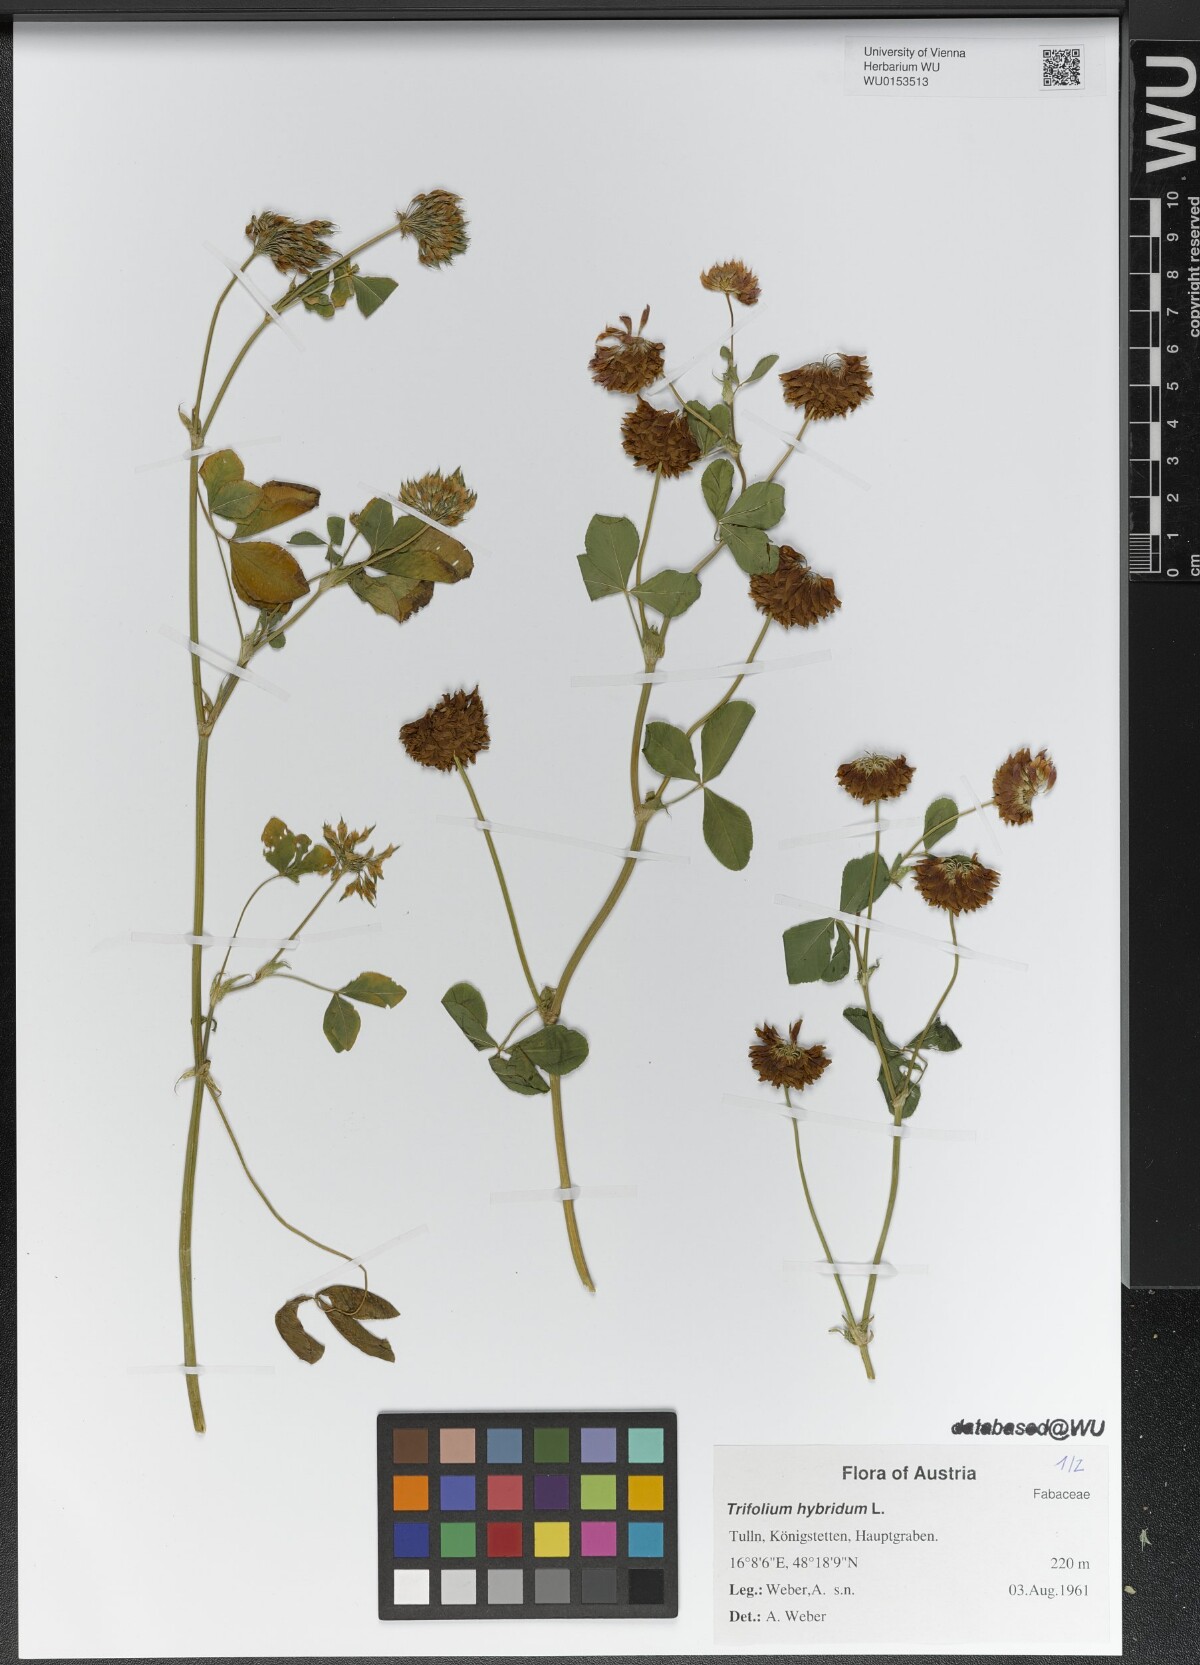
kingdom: Plantae
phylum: Tracheophyta
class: Magnoliopsida
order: Fabales
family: Fabaceae
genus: Trifolium
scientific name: Trifolium hybridum
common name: Alsike clover
